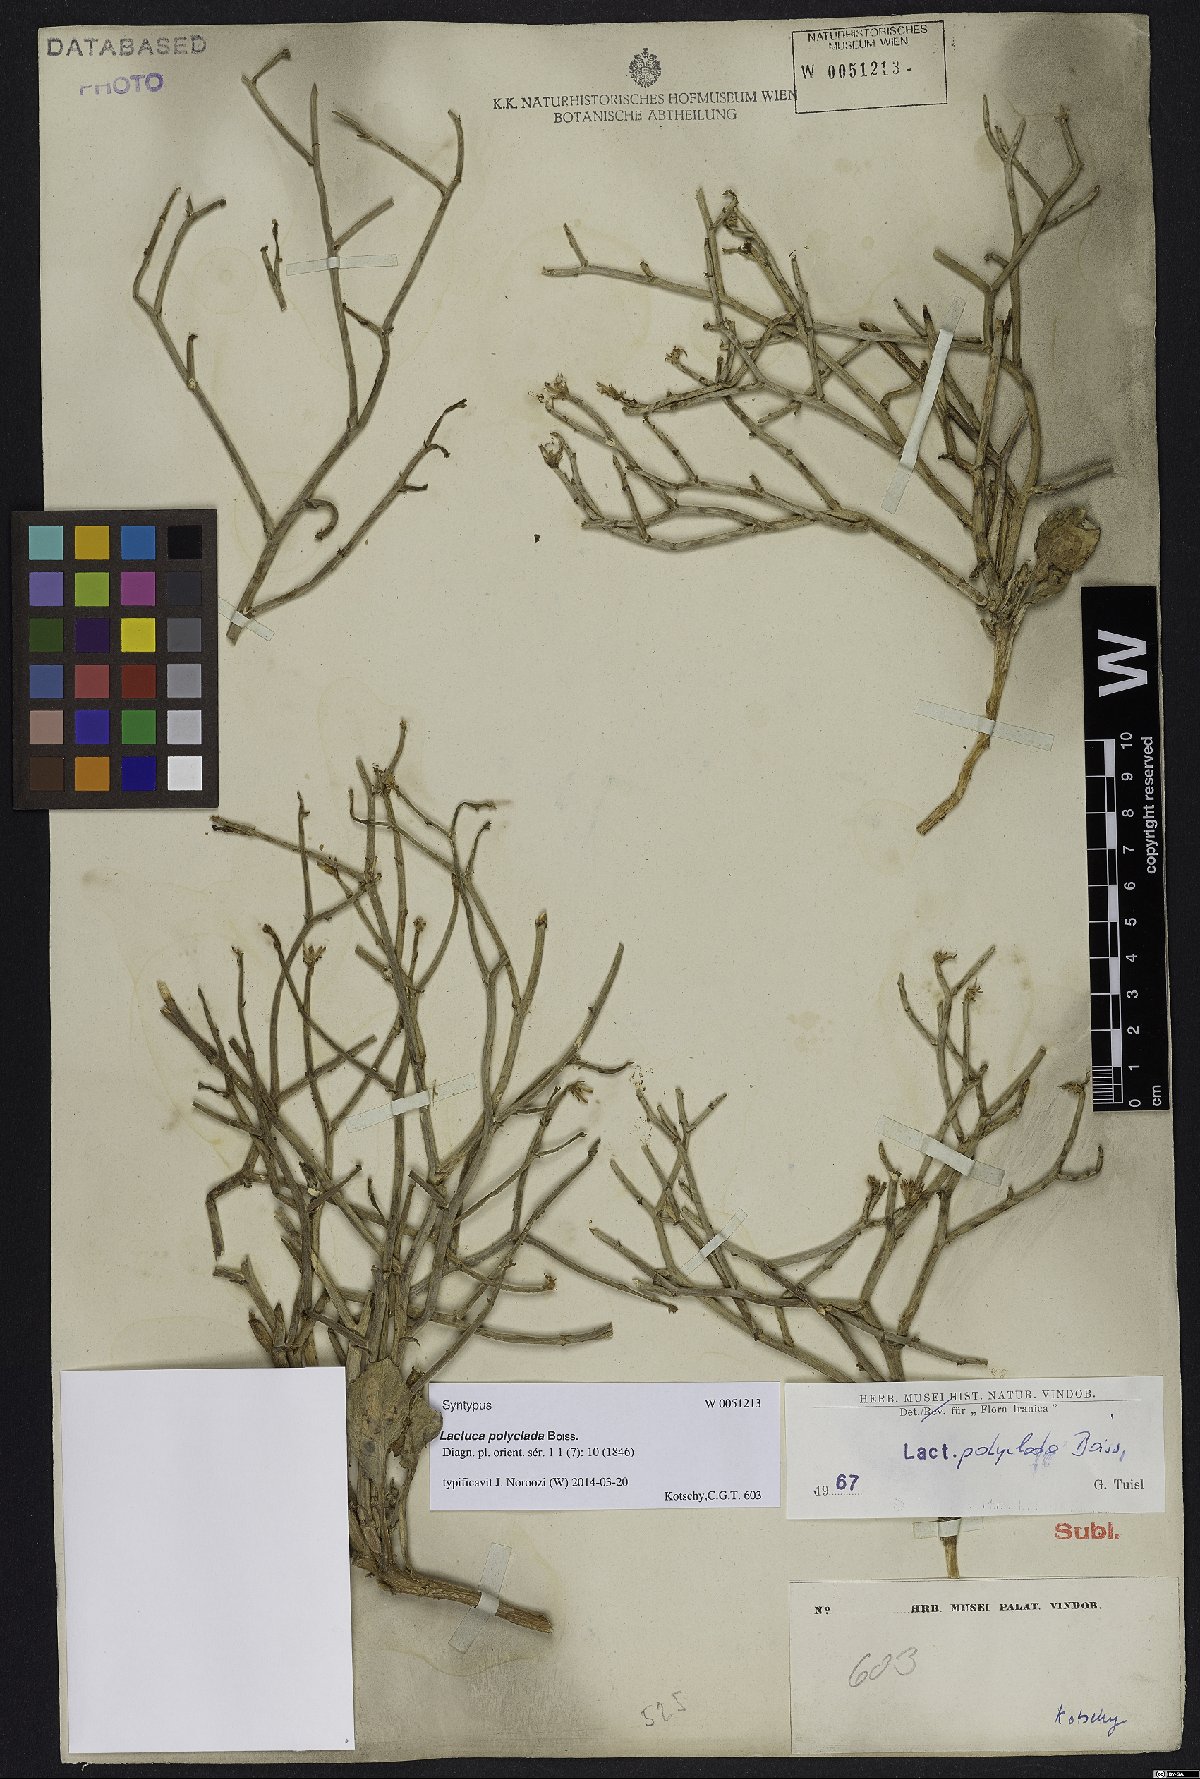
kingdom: Plantae
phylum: Tracheophyta
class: Magnoliopsida
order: Asterales
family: Asteraceae
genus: Lactuca
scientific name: Lactuca polyclada
